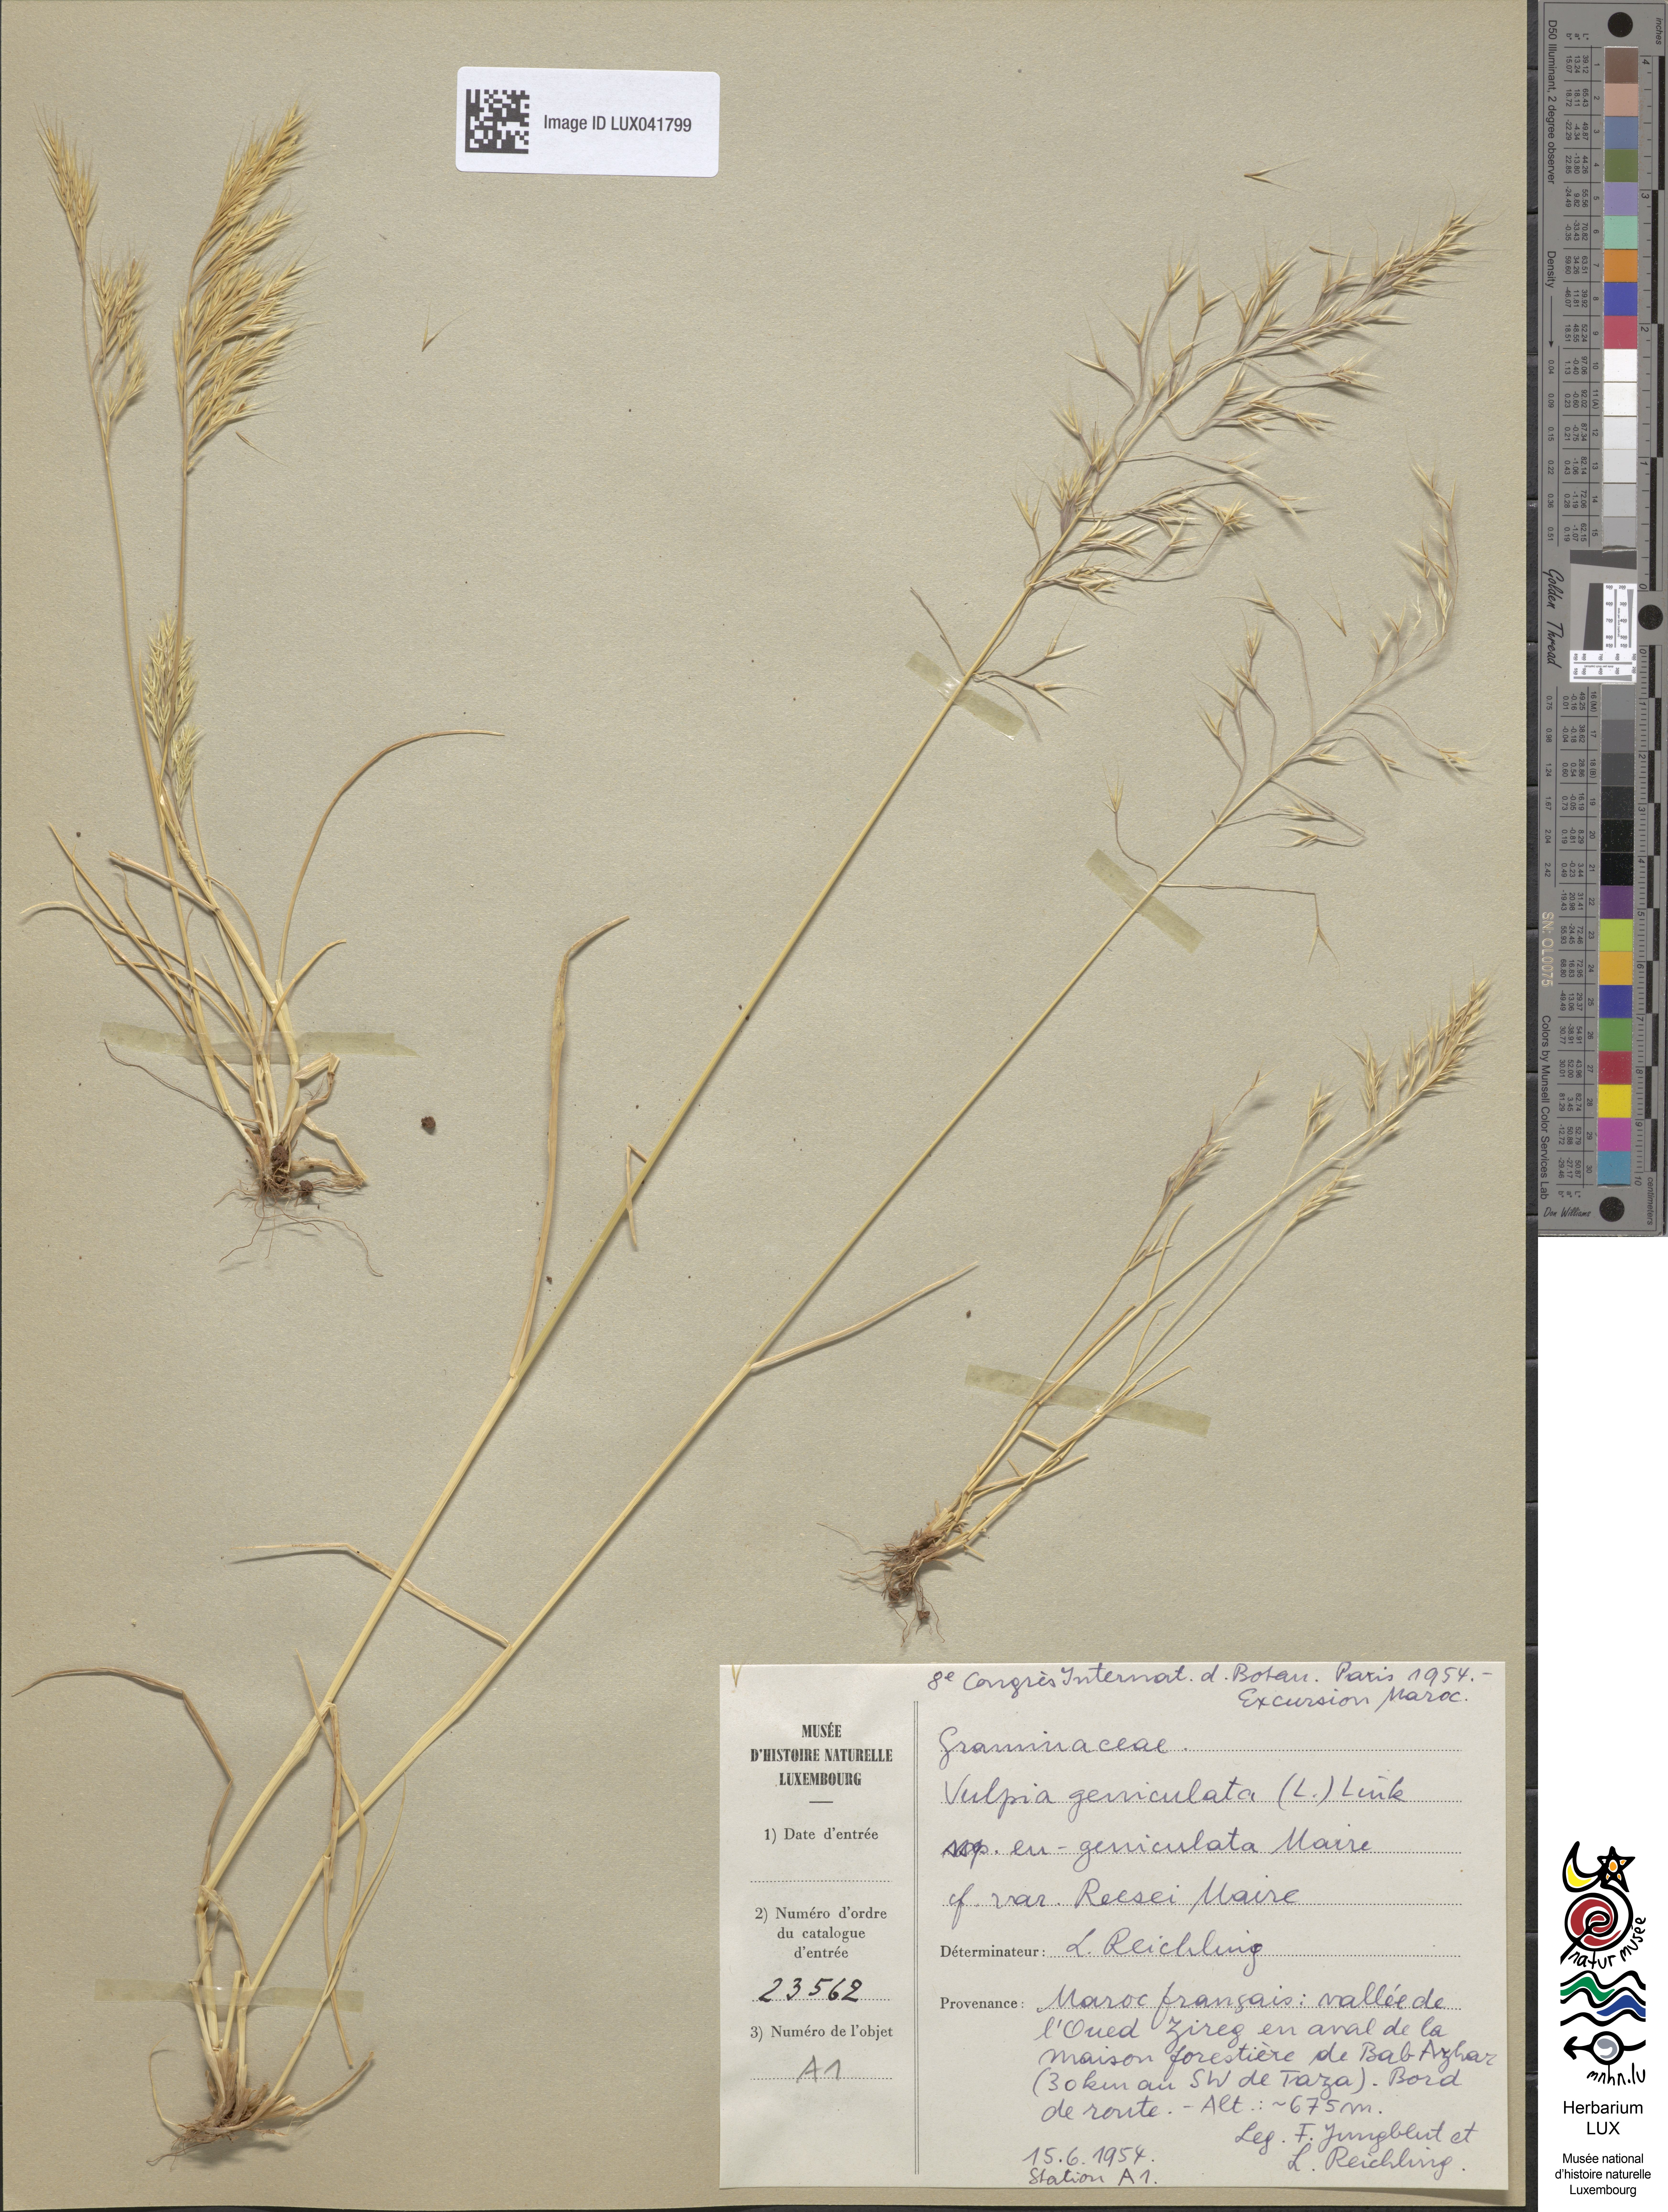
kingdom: Plantae
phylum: Tracheophyta
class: Liliopsida
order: Poales
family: Poaceae
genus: Festuca
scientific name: Festuca geniculata
